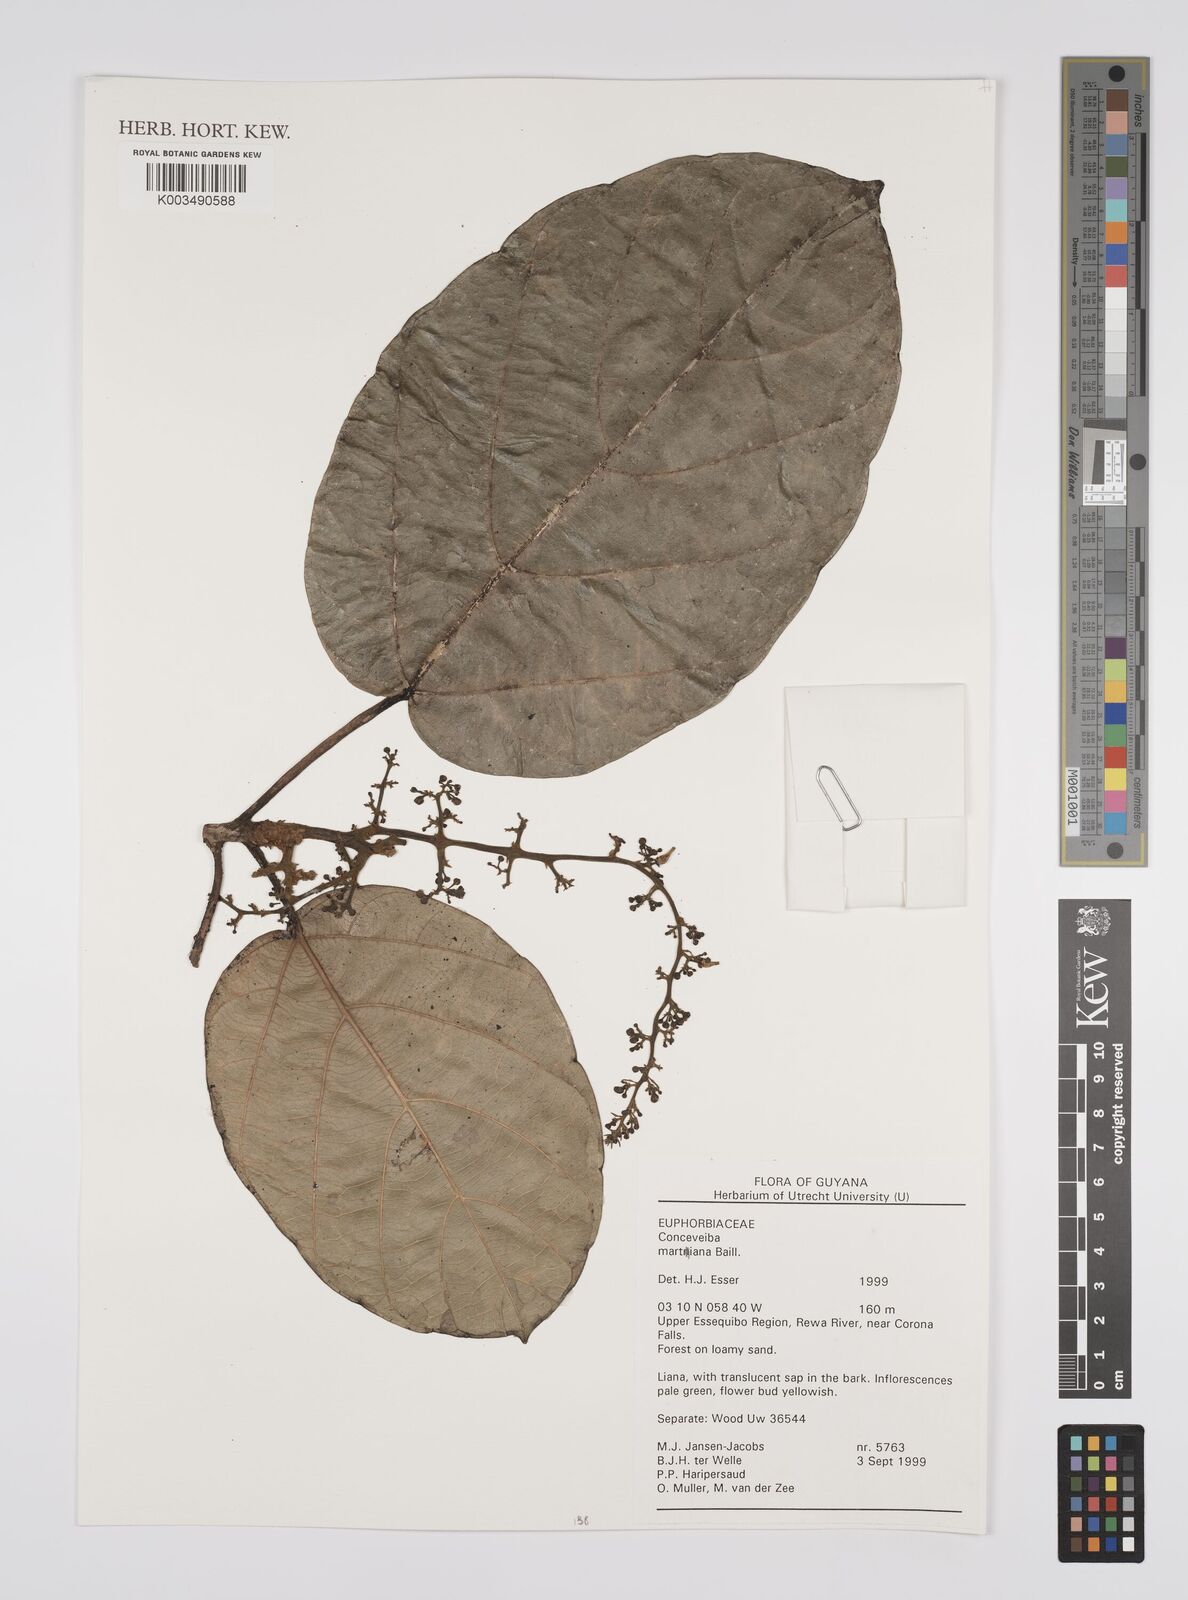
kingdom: Plantae
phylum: Tracheophyta
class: Magnoliopsida
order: Malpighiales
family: Euphorbiaceae
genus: Conceveiba
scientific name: Conceveiba martiana
